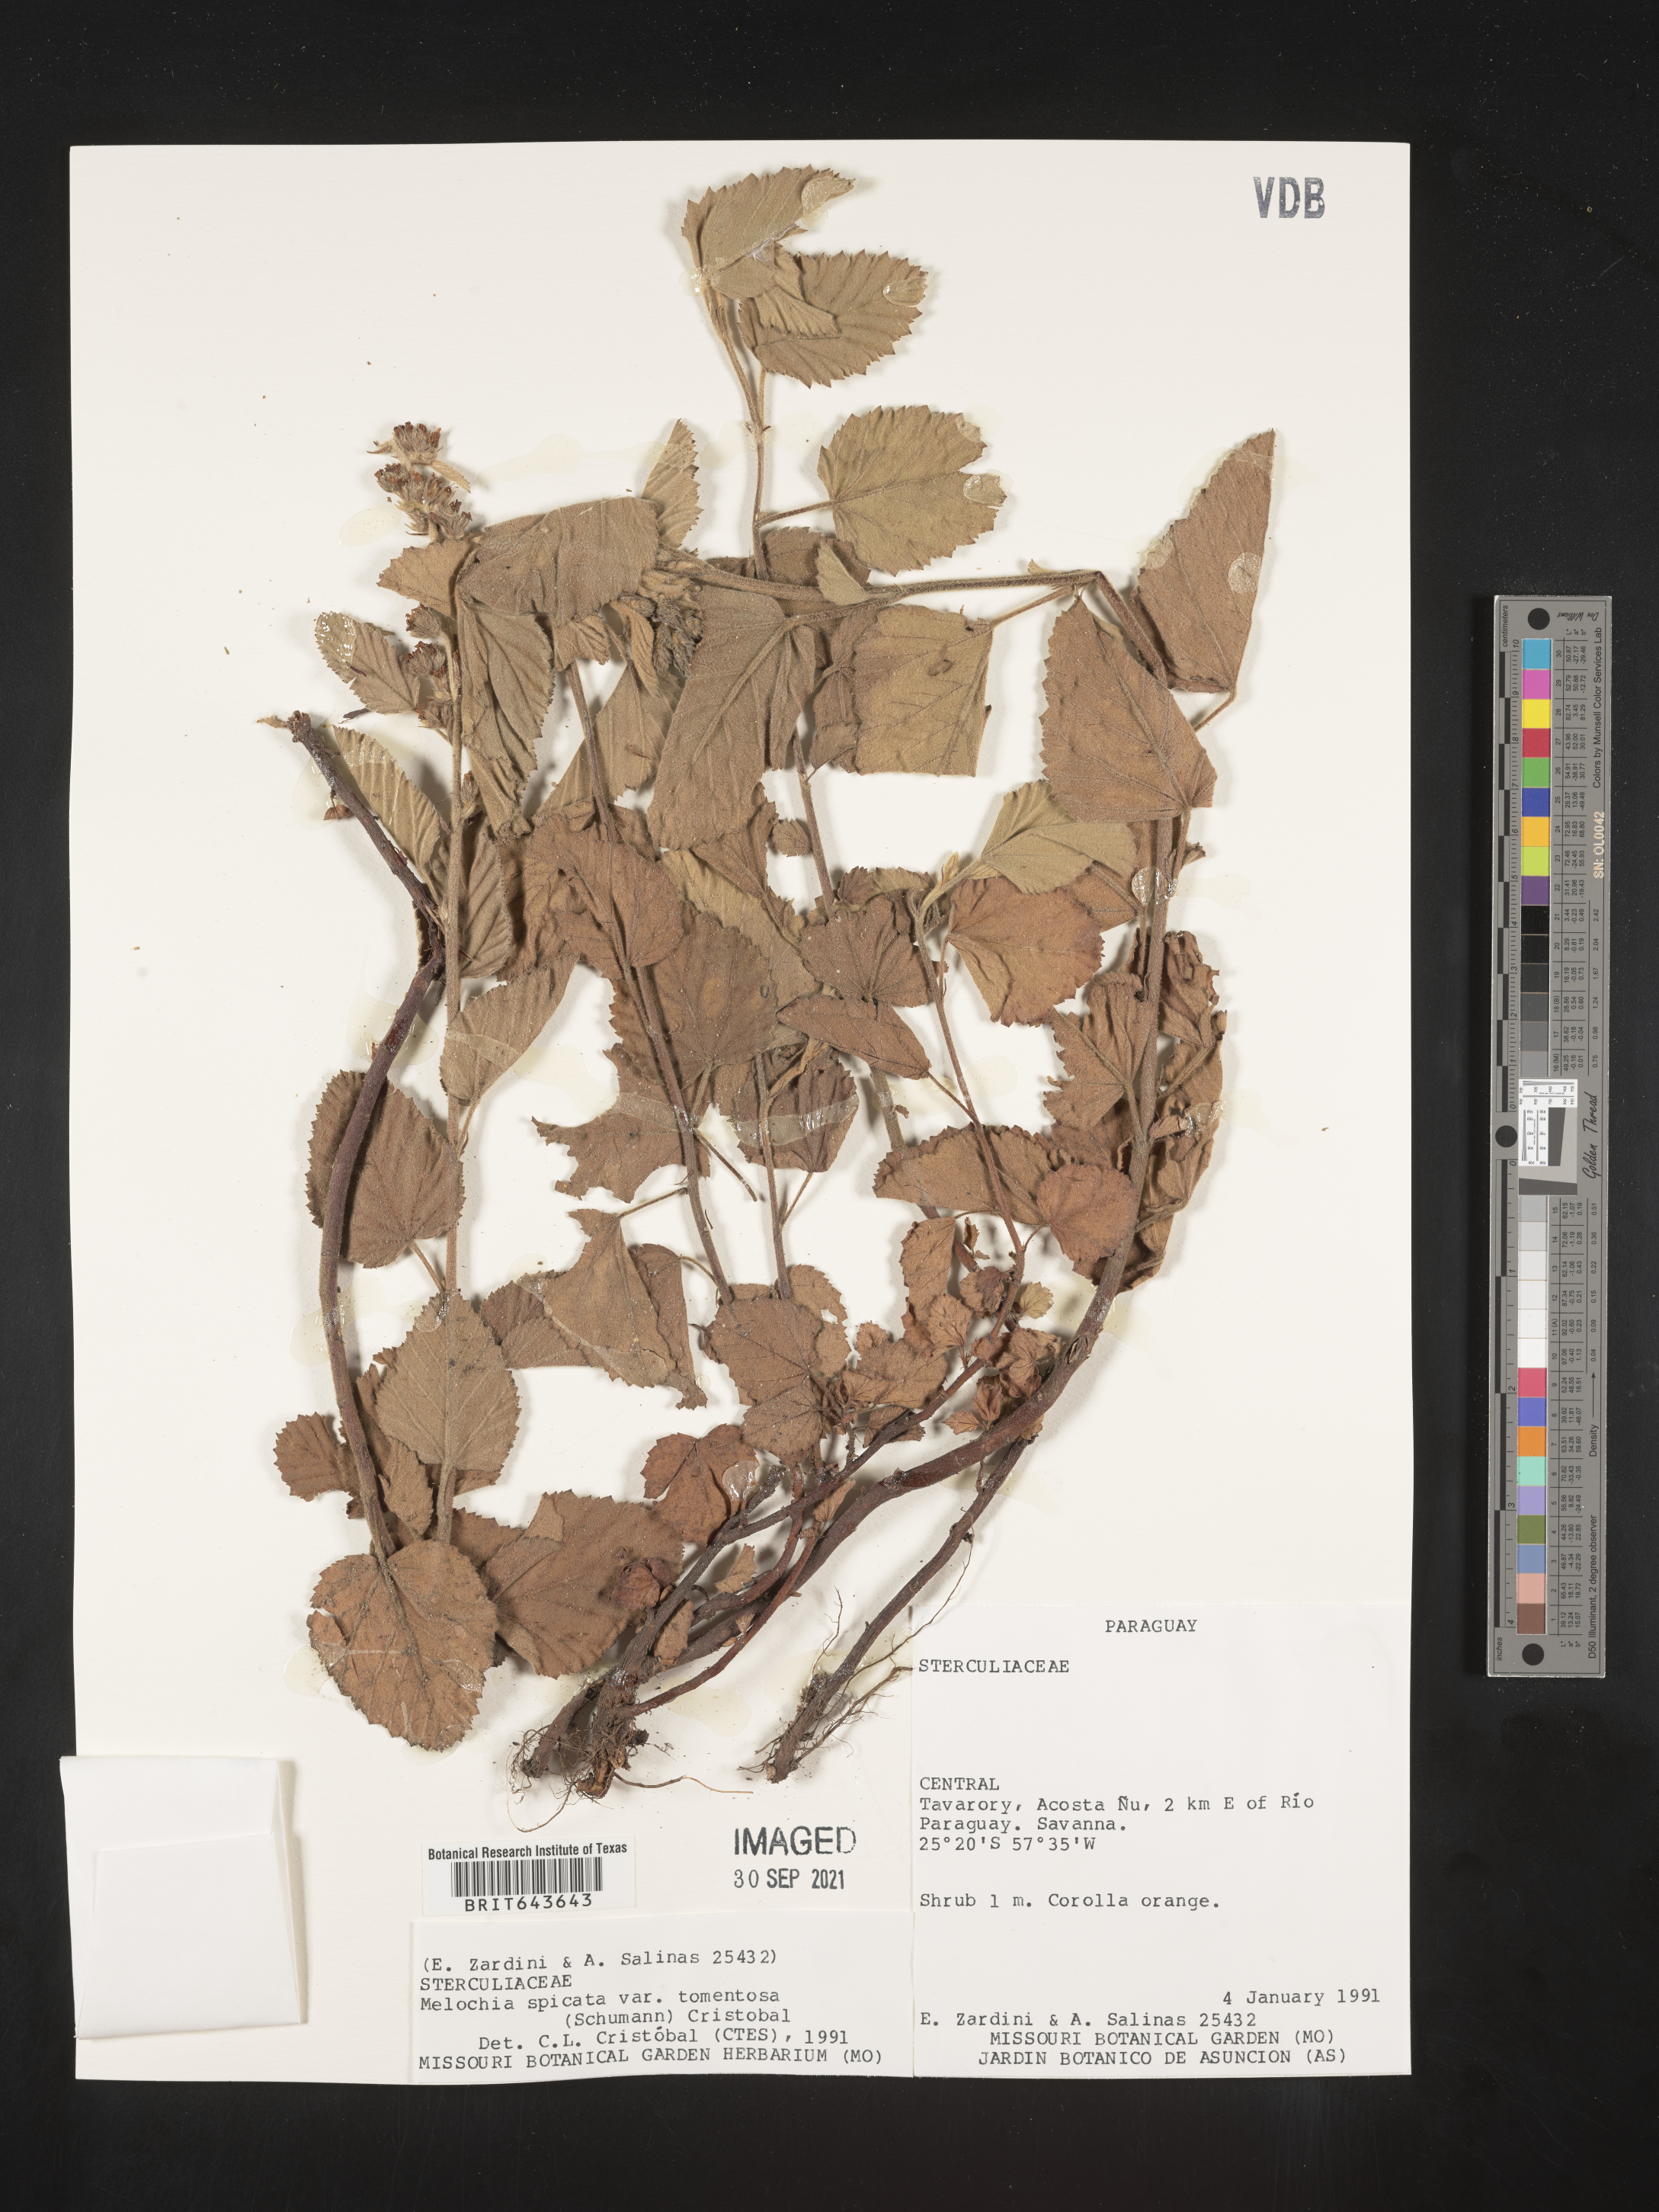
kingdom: Plantae
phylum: Tracheophyta
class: Magnoliopsida
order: Malvales
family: Malvaceae
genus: Melochia
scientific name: Melochia
